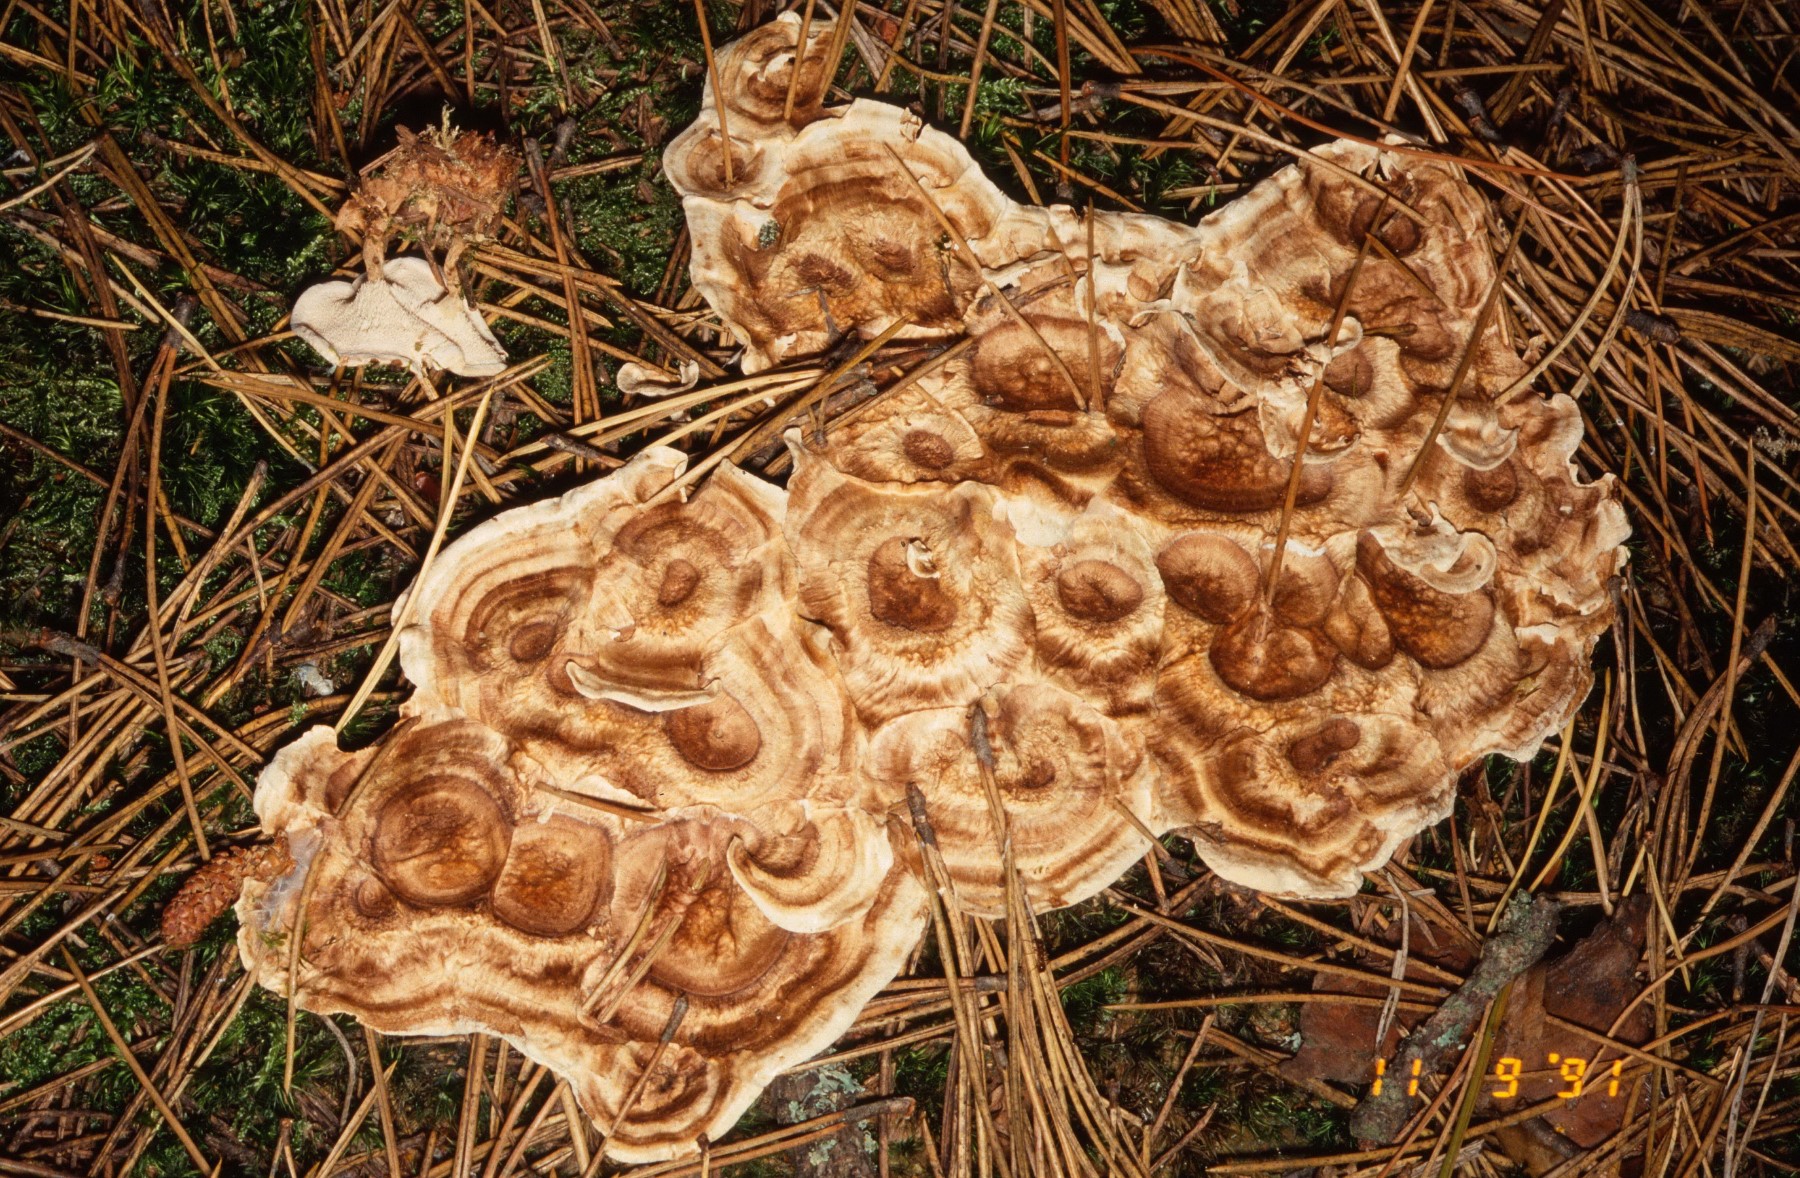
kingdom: Fungi
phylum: Basidiomycota
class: Agaricomycetes
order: Thelephorales
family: Thelephoraceae
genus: Phellodon
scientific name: Phellodon tomentosus
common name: tragtformet duftpigsvamp
